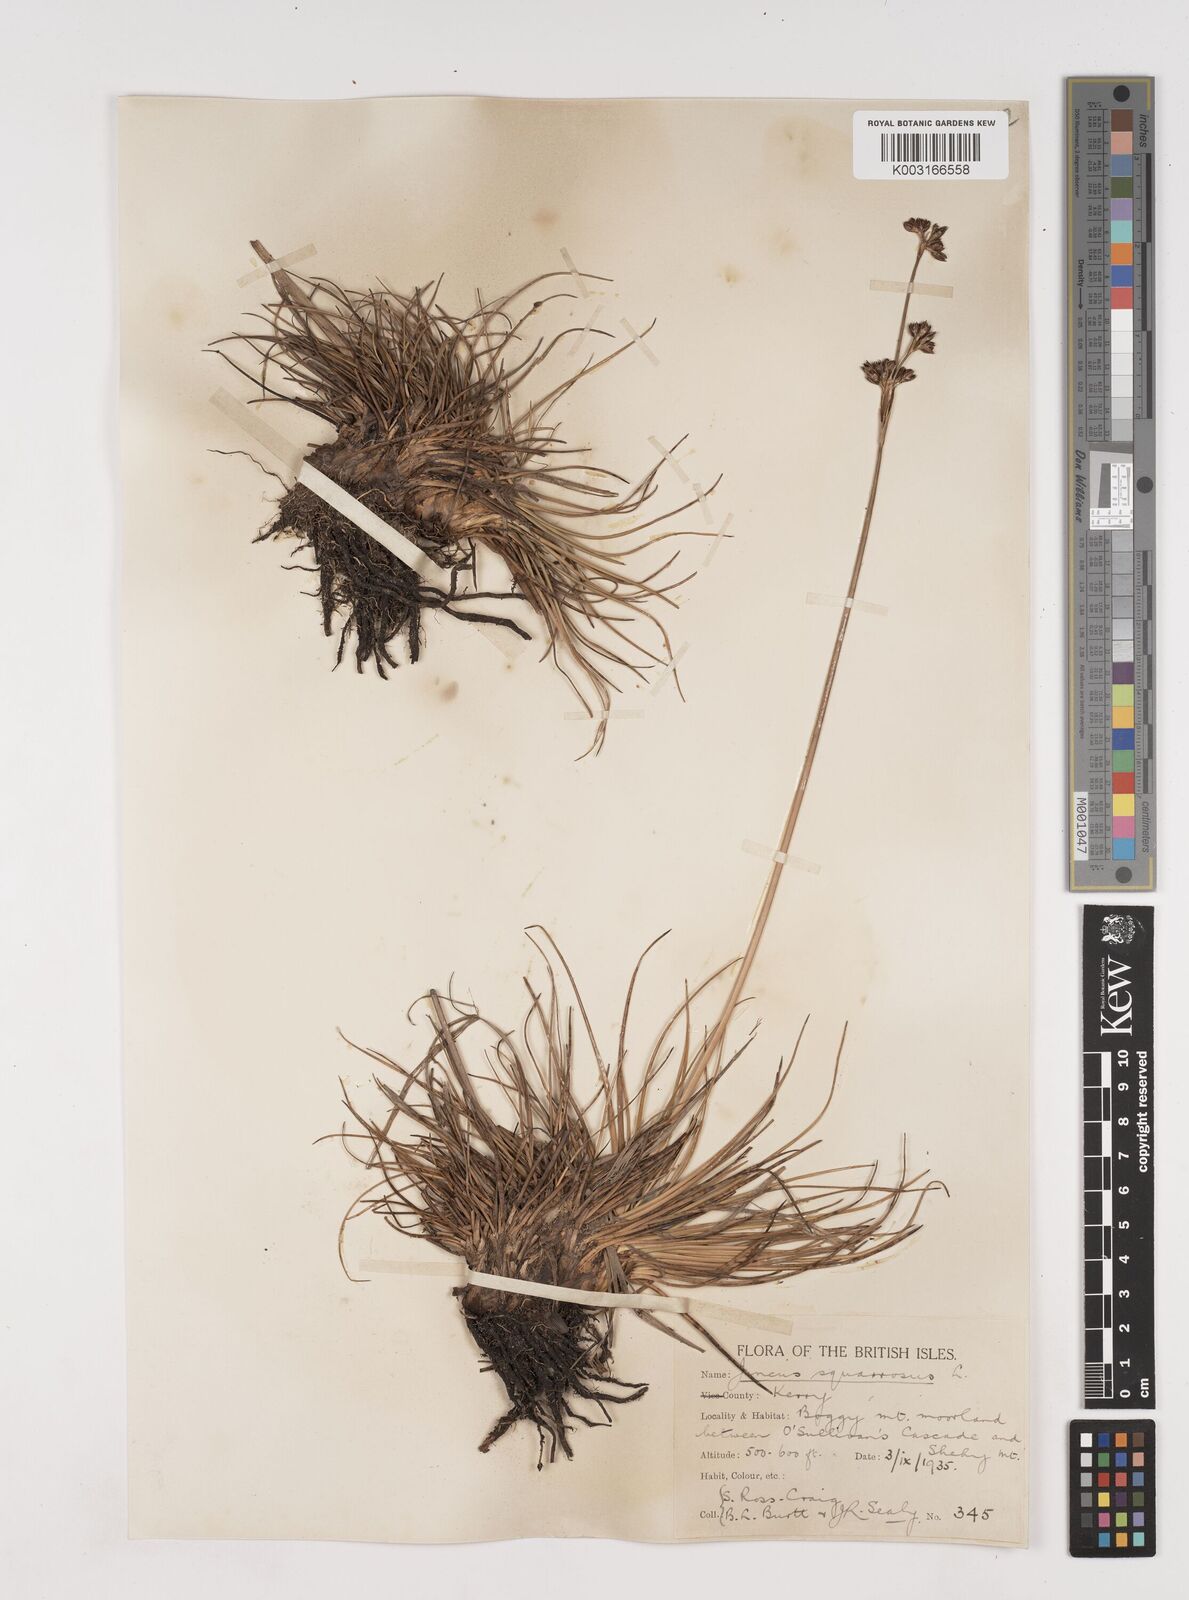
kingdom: Plantae
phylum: Tracheophyta
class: Liliopsida
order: Poales
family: Juncaceae
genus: Juncus
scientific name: Juncus squarrosus
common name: Heath rush
